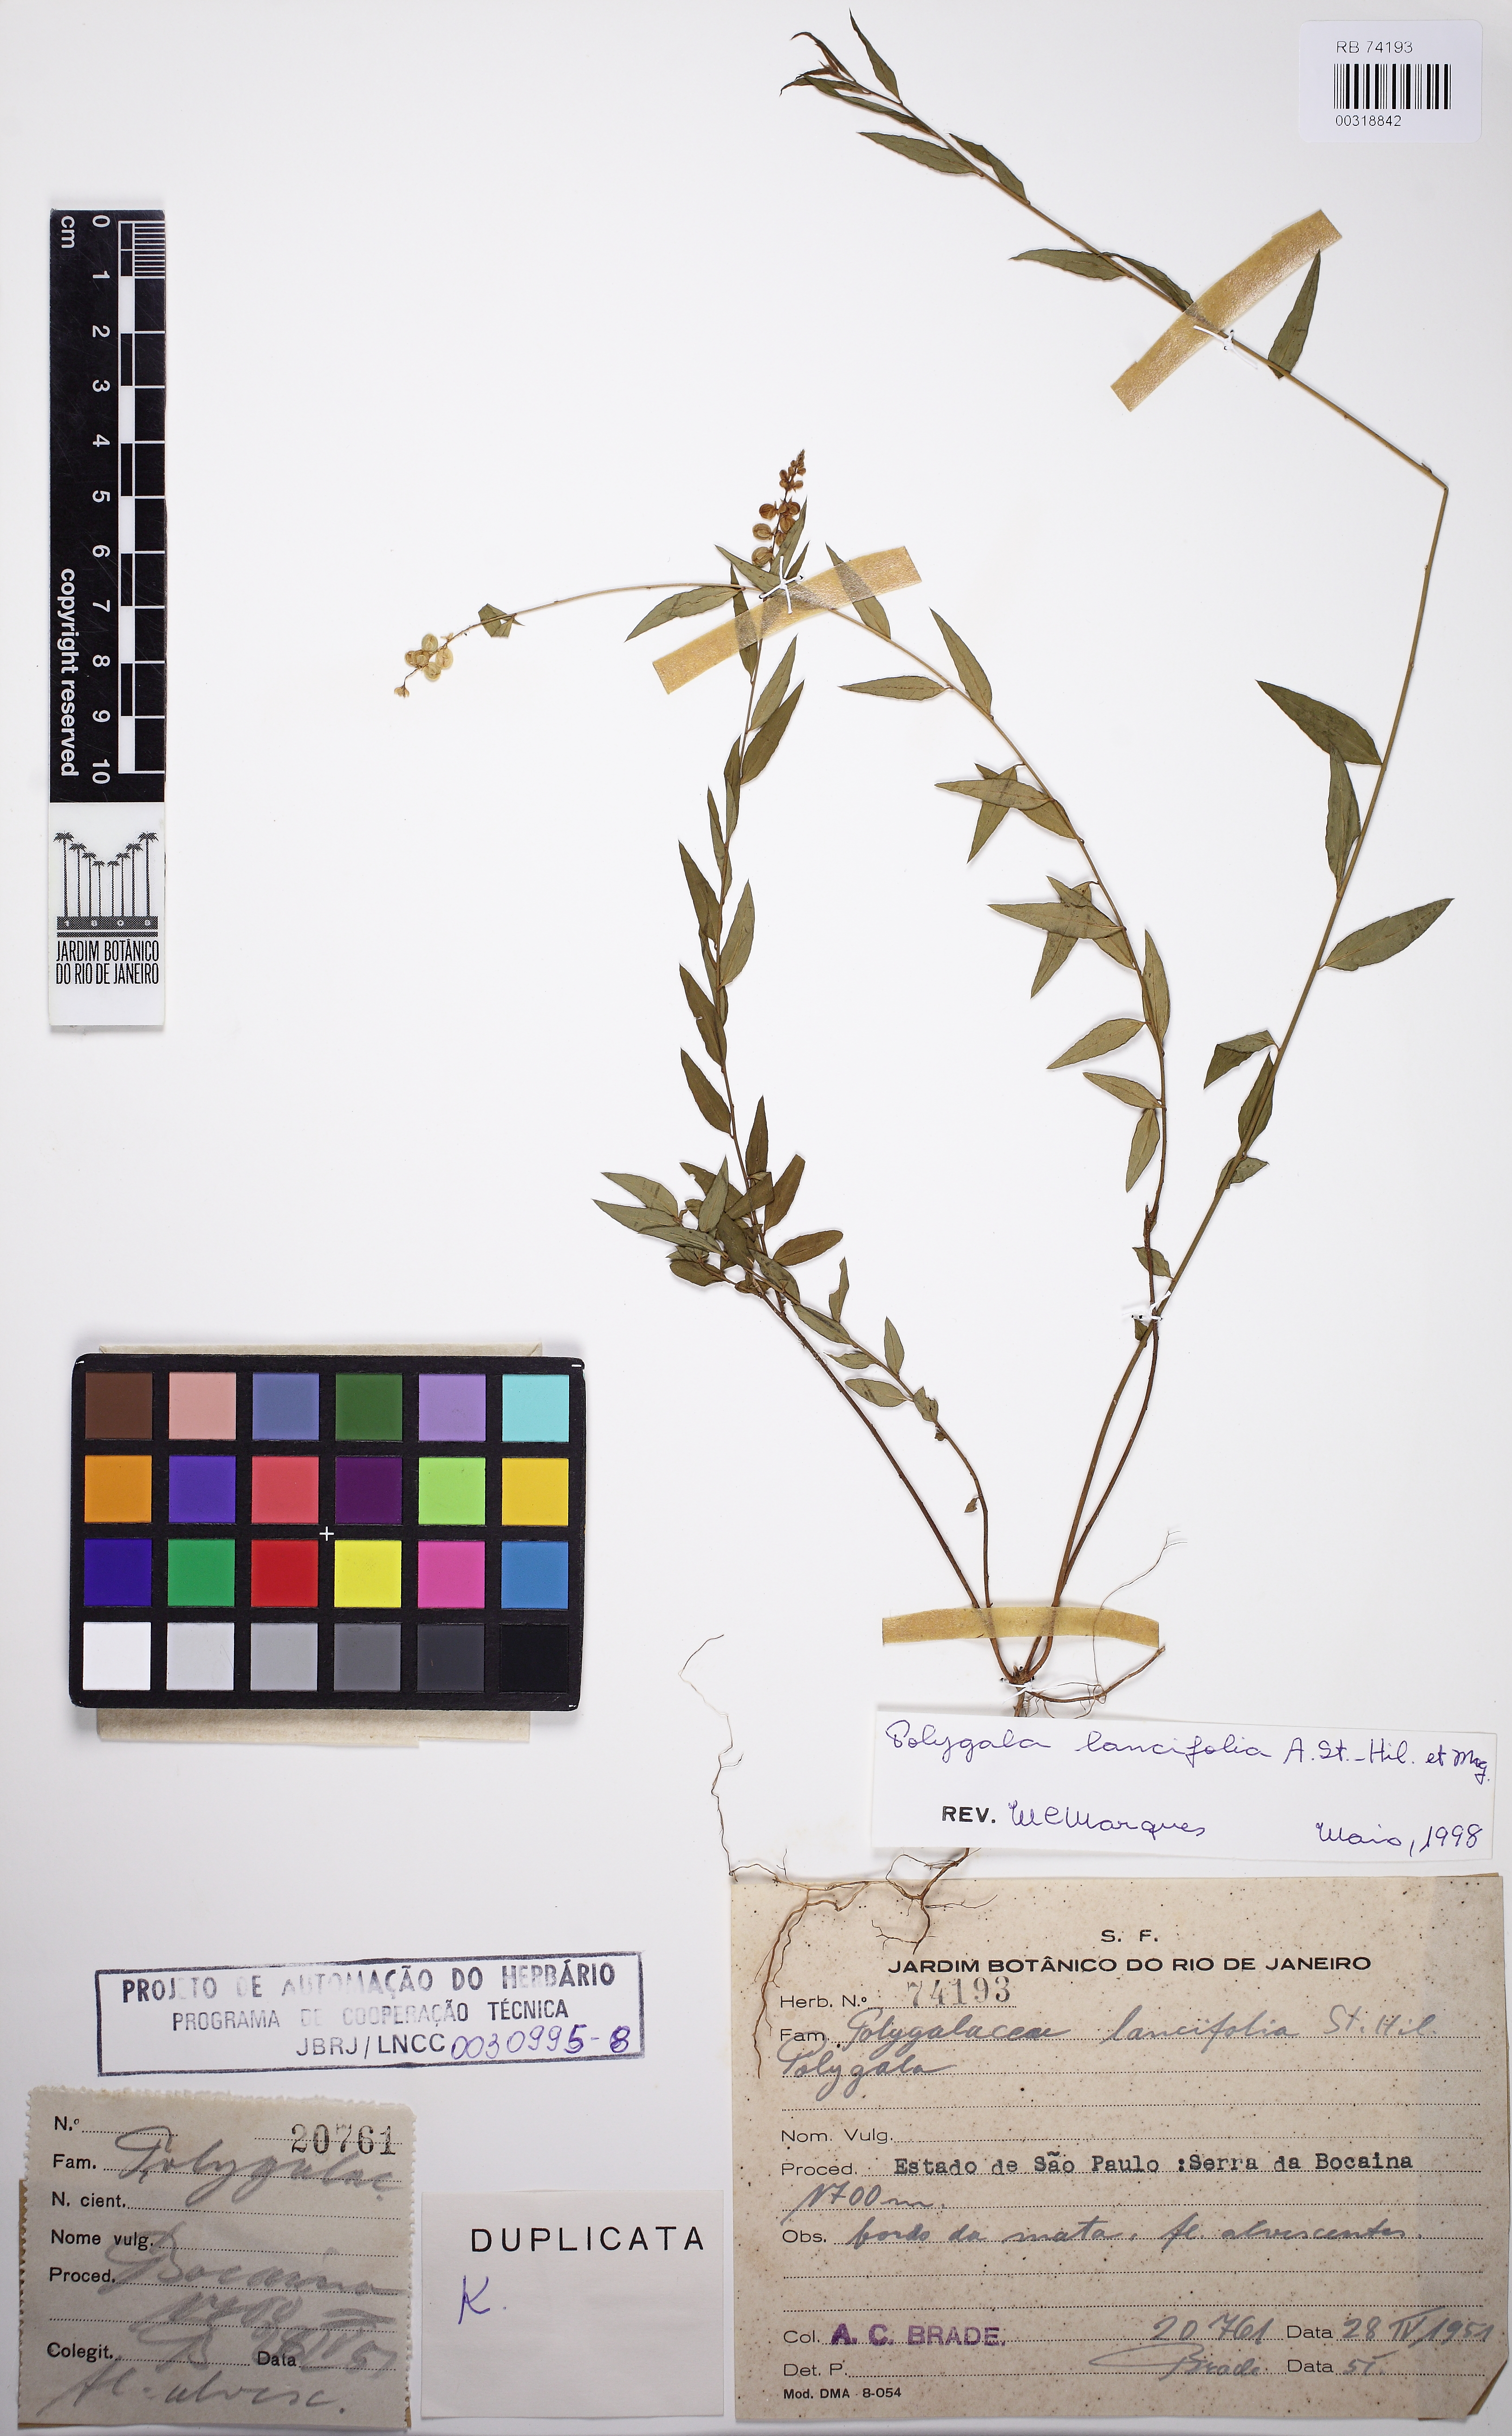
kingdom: Plantae
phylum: Tracheophyta
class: Magnoliopsida
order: Fabales
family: Polygalaceae
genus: Polygala
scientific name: Polygala lancifolia
